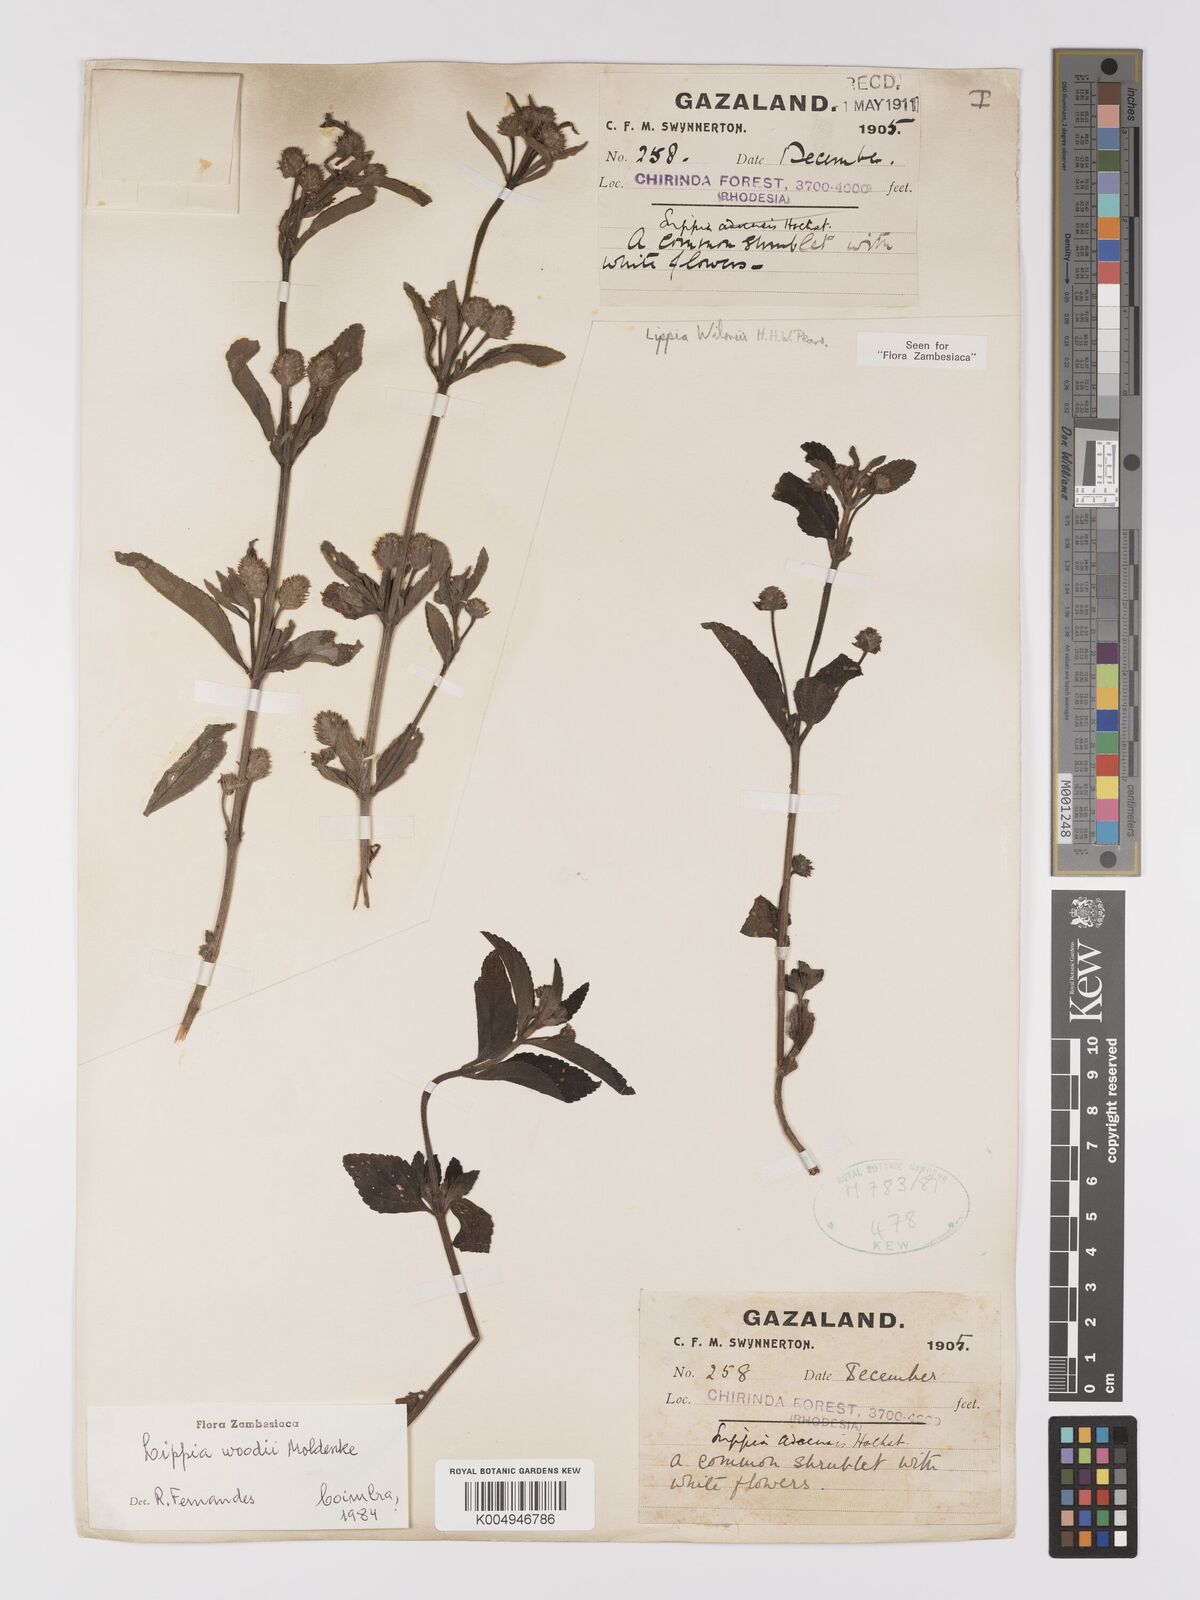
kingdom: Plantae
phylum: Tracheophyta
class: Magnoliopsida
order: Lamiales
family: Verbenaceae
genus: Lippia
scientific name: Lippia woodii
